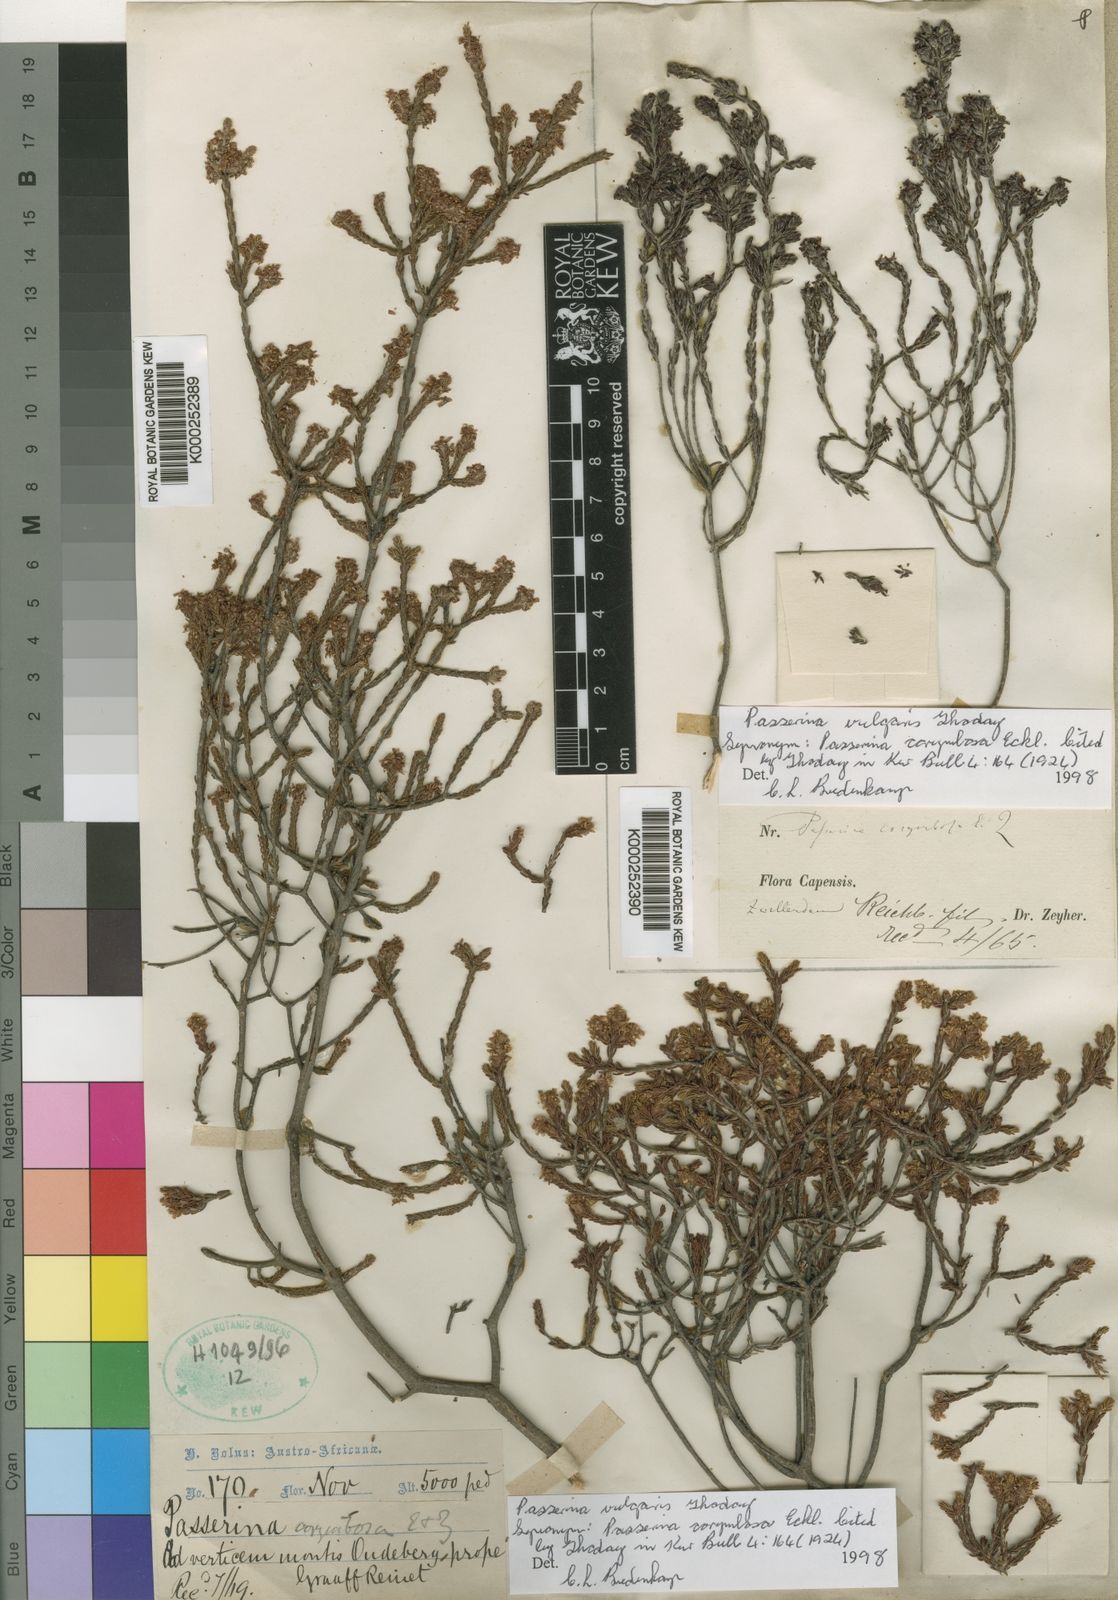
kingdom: Plantae
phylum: Tracheophyta
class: Magnoliopsida
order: Malvales
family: Thymelaeaceae
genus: Passerina
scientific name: Passerina corymbosa
